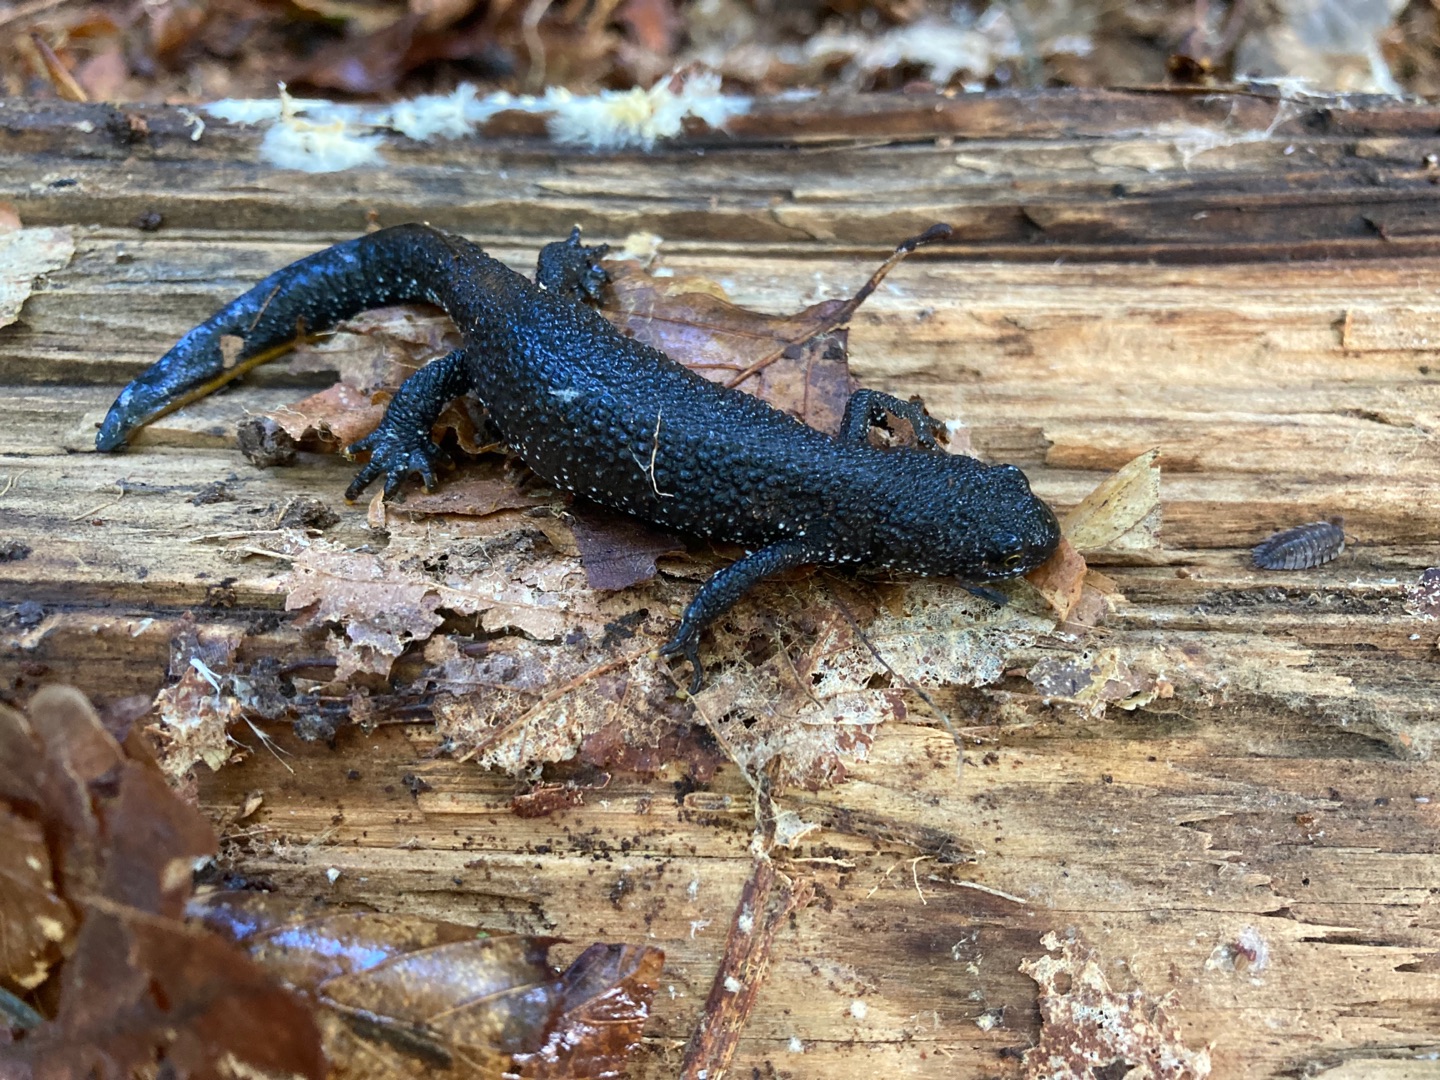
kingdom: Animalia
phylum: Chordata
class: Amphibia
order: Caudata
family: Salamandridae
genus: Triturus
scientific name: Triturus cristatus
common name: Stor vandsalamander
